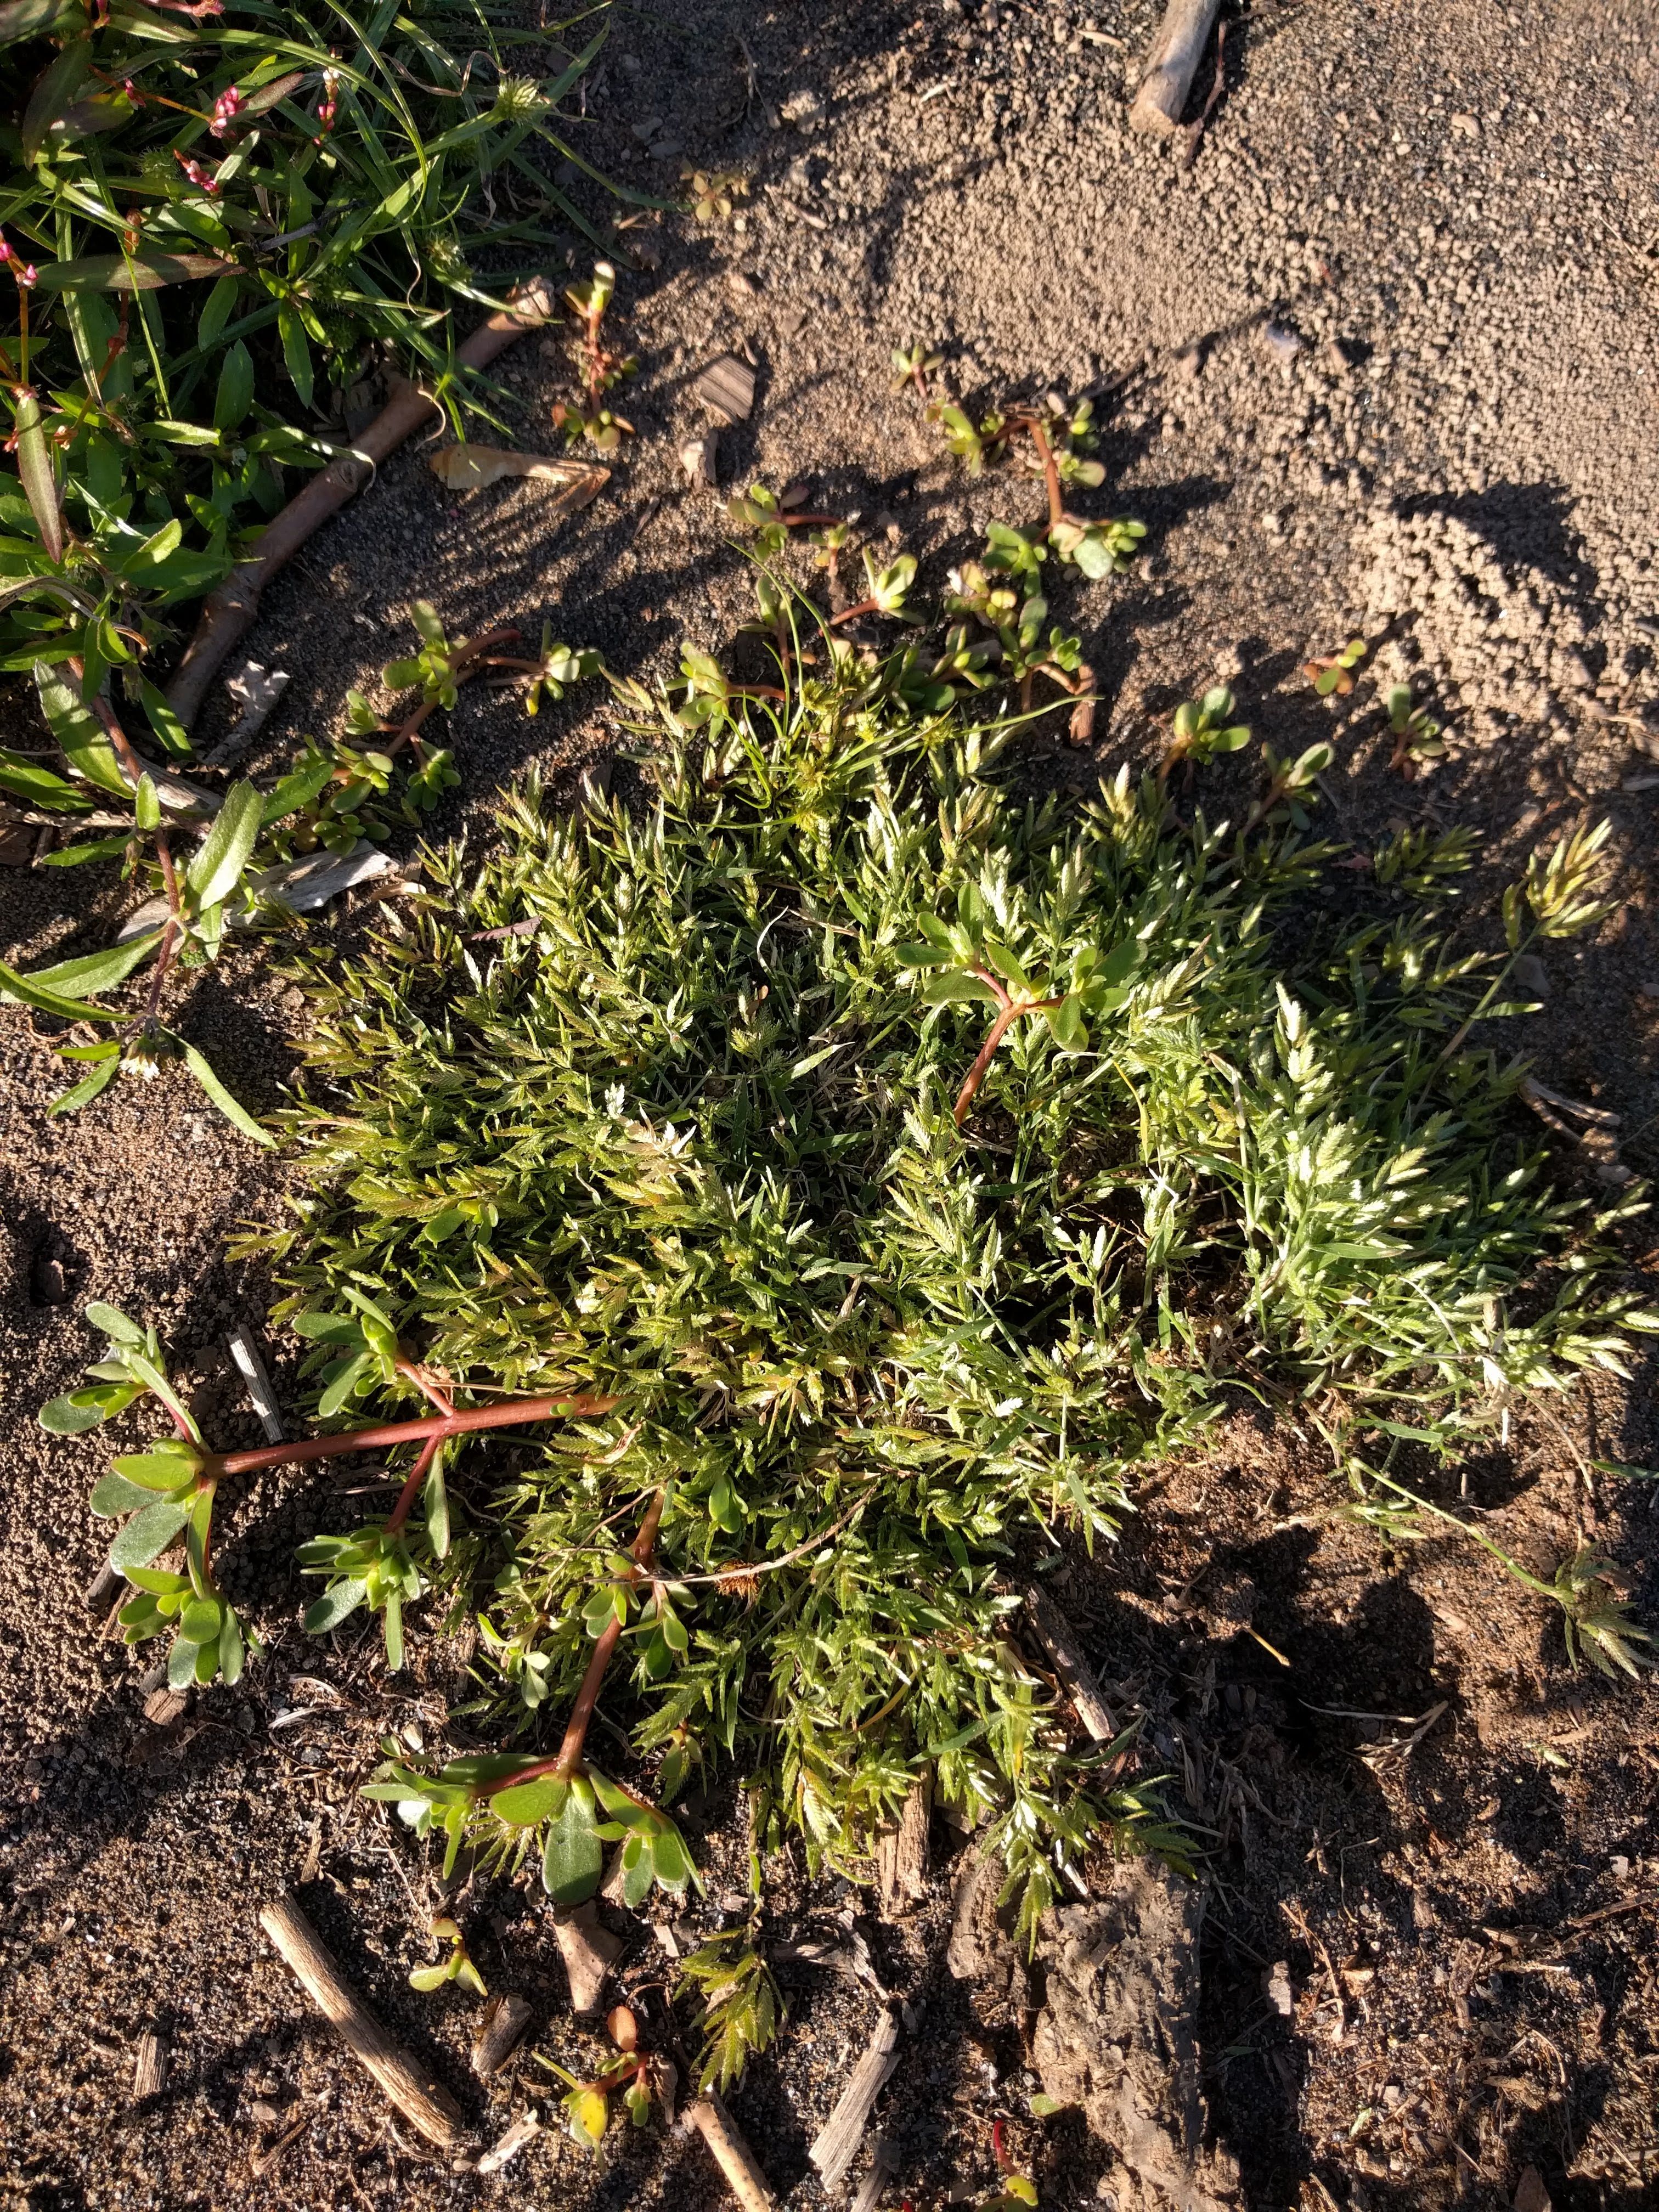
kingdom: Plantae
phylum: Tracheophyta
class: Liliopsida
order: Poales
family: Poaceae
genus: Eragrostis
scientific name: Eragrostis hypnoides
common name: Creeping love grass
